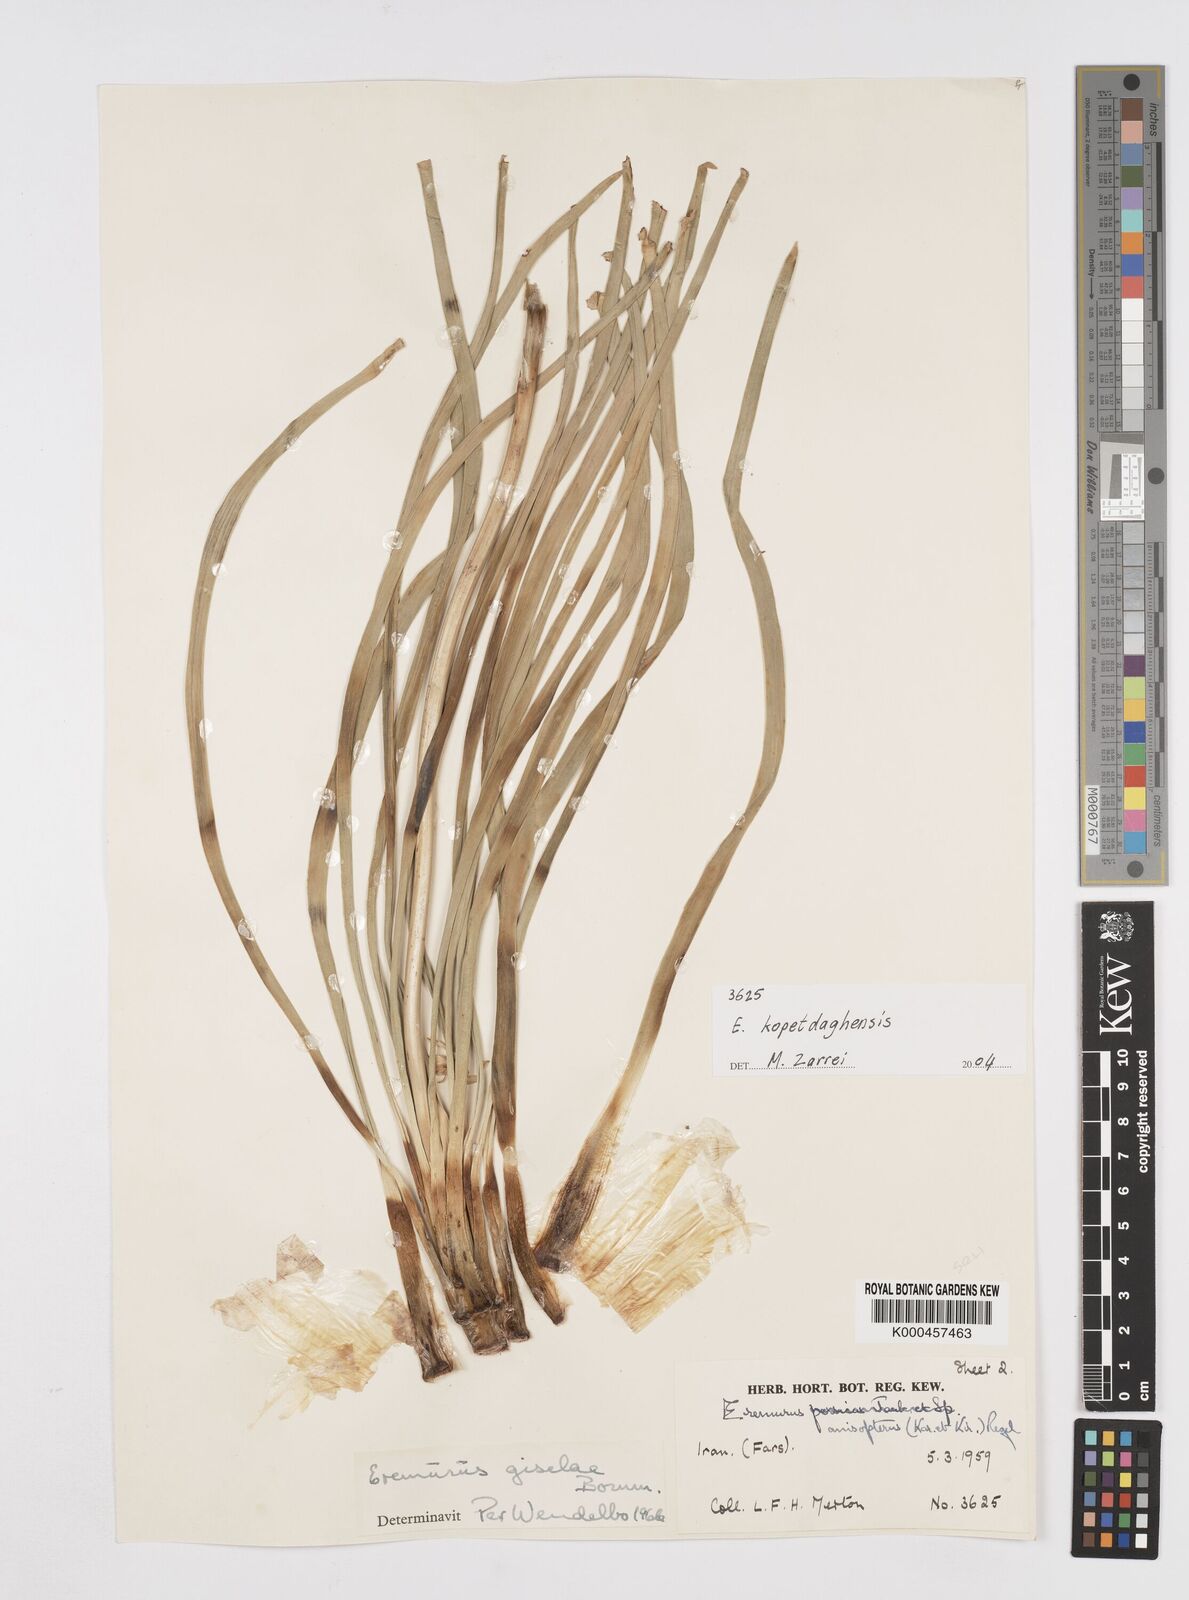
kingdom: Plantae
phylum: Tracheophyta
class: Liliopsida
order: Asparagales
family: Asphodelaceae
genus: Eremurus
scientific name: Eremurus kopet-daghensis
